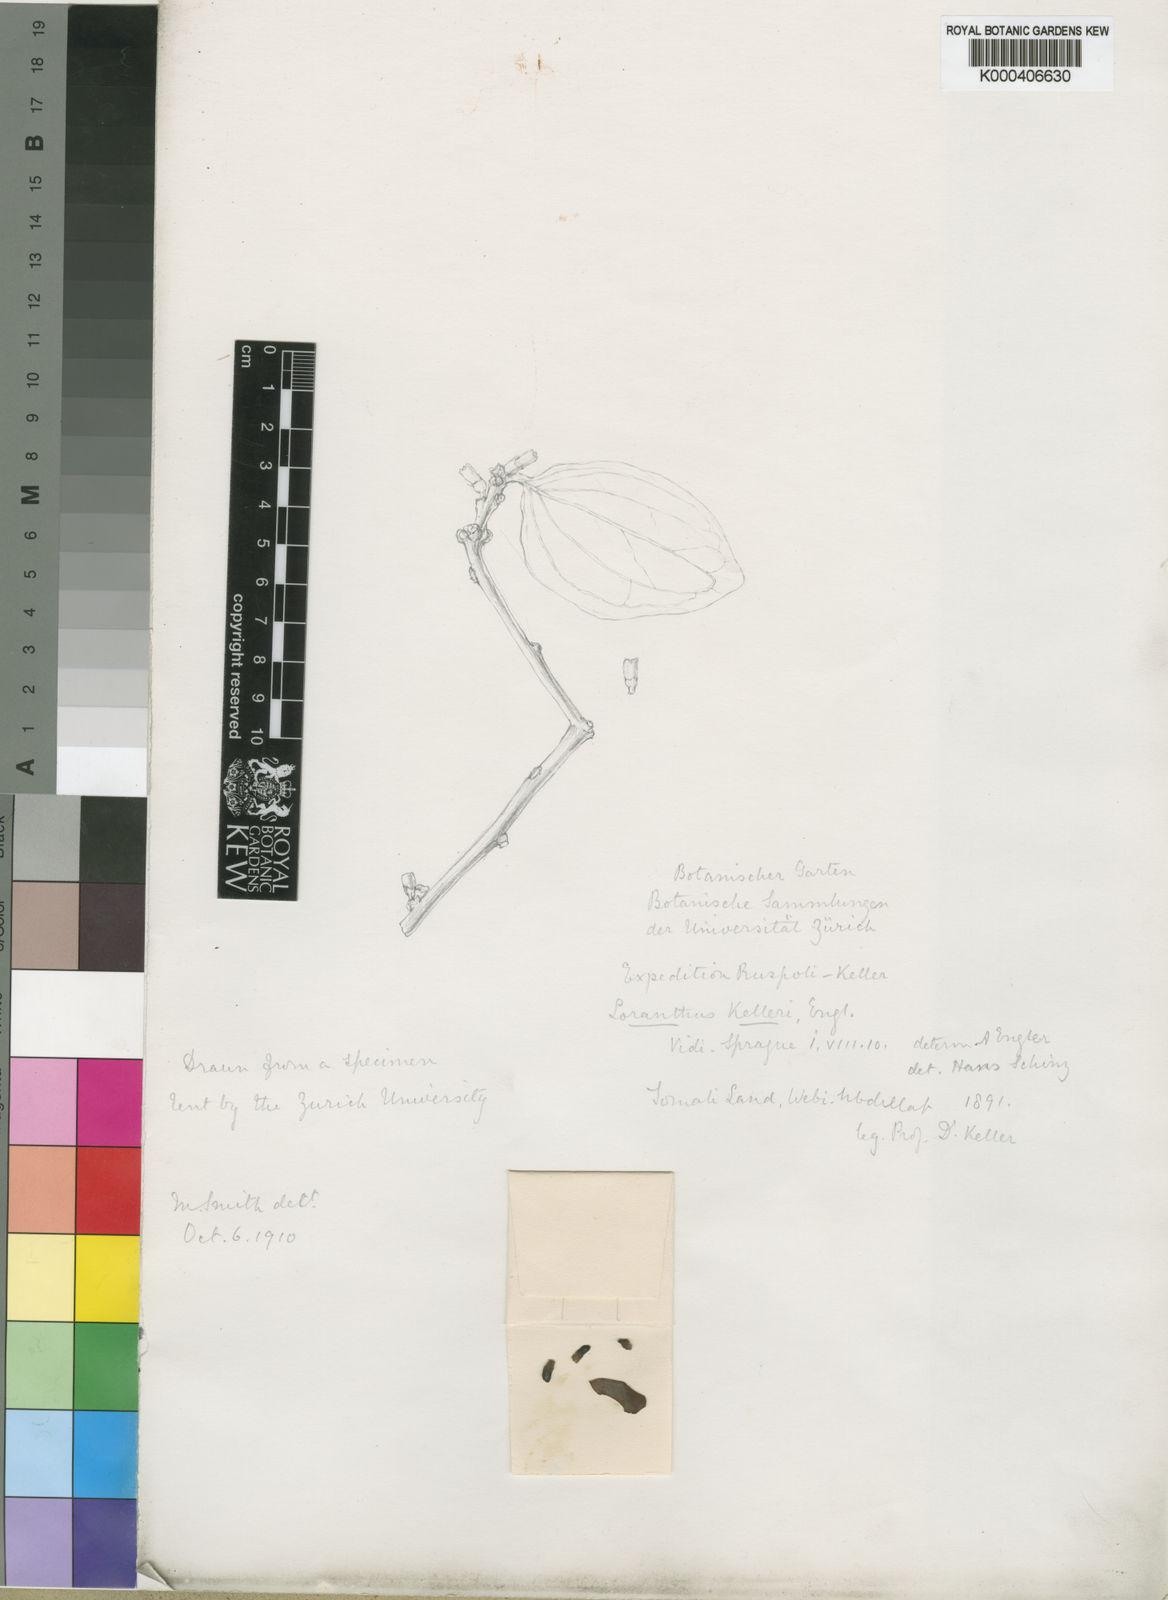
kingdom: Plantae
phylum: Tracheophyta
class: Magnoliopsida
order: Santalales
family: Loranthaceae
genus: Oncocalyx
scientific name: Oncocalyx kelleri
